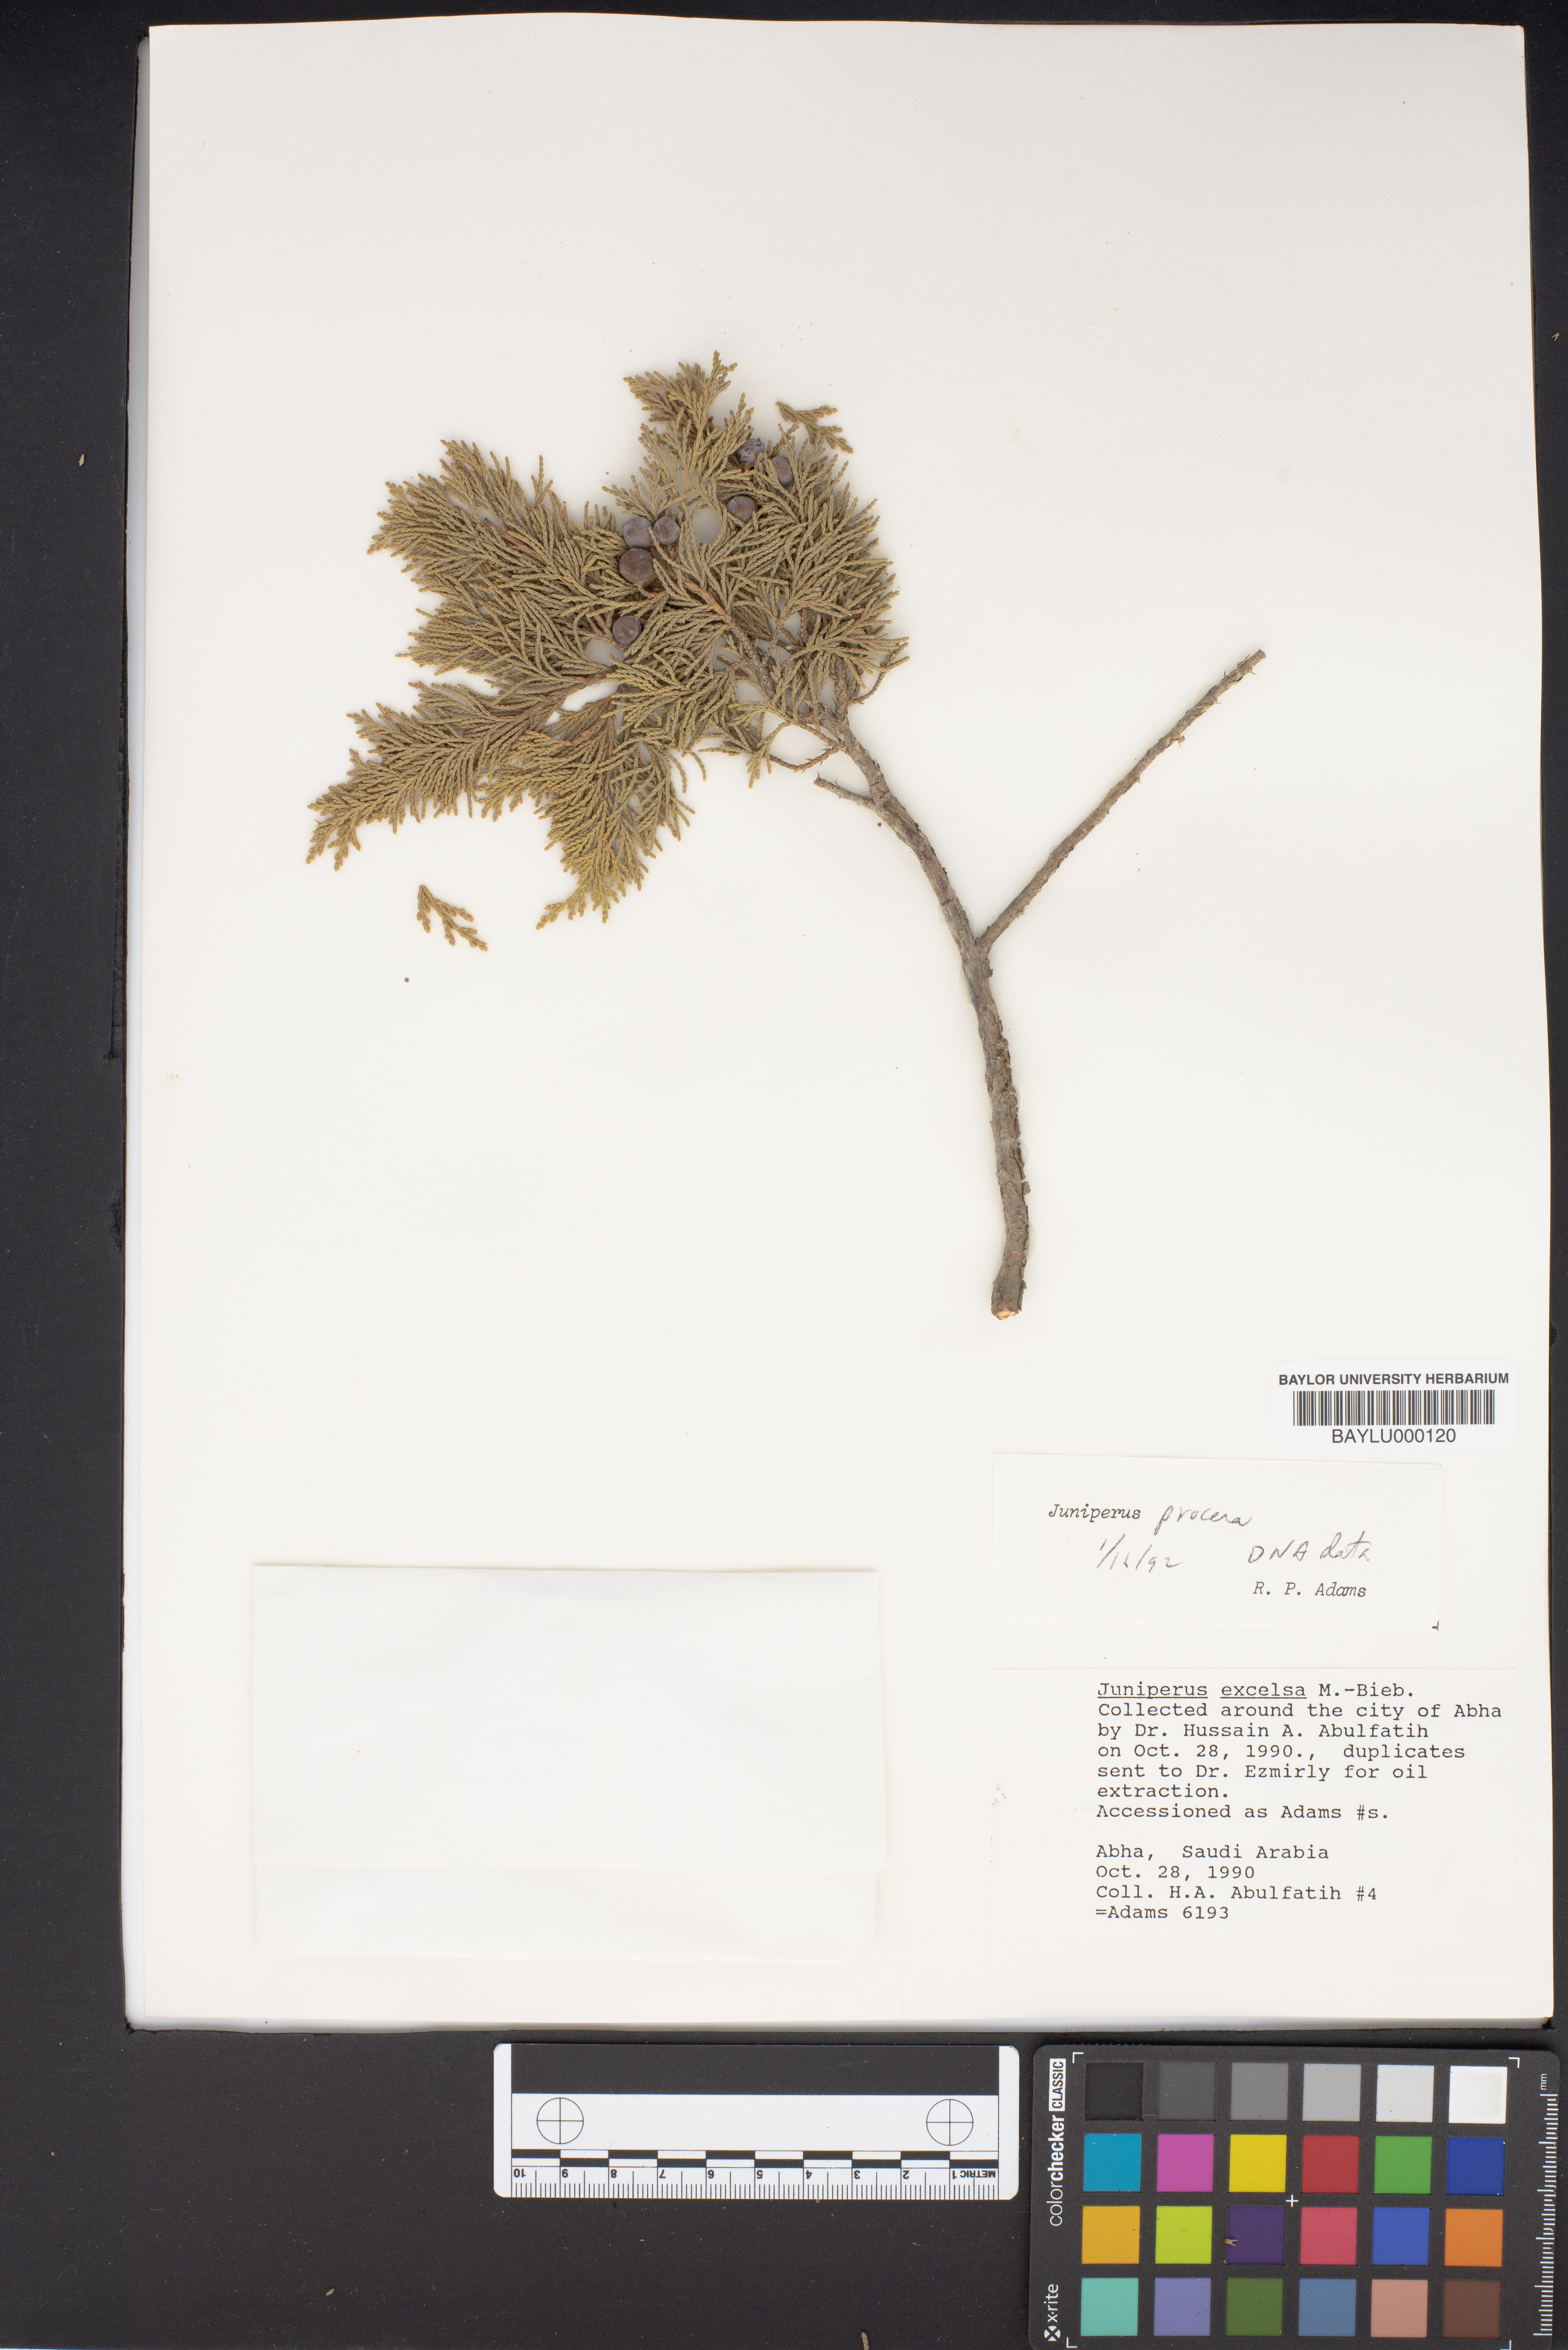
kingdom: Plantae
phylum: Tracheophyta
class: Pinopsida
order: Pinales
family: Cupressaceae
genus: Juniperus
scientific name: Juniperus excelsa
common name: Crimean juniper
